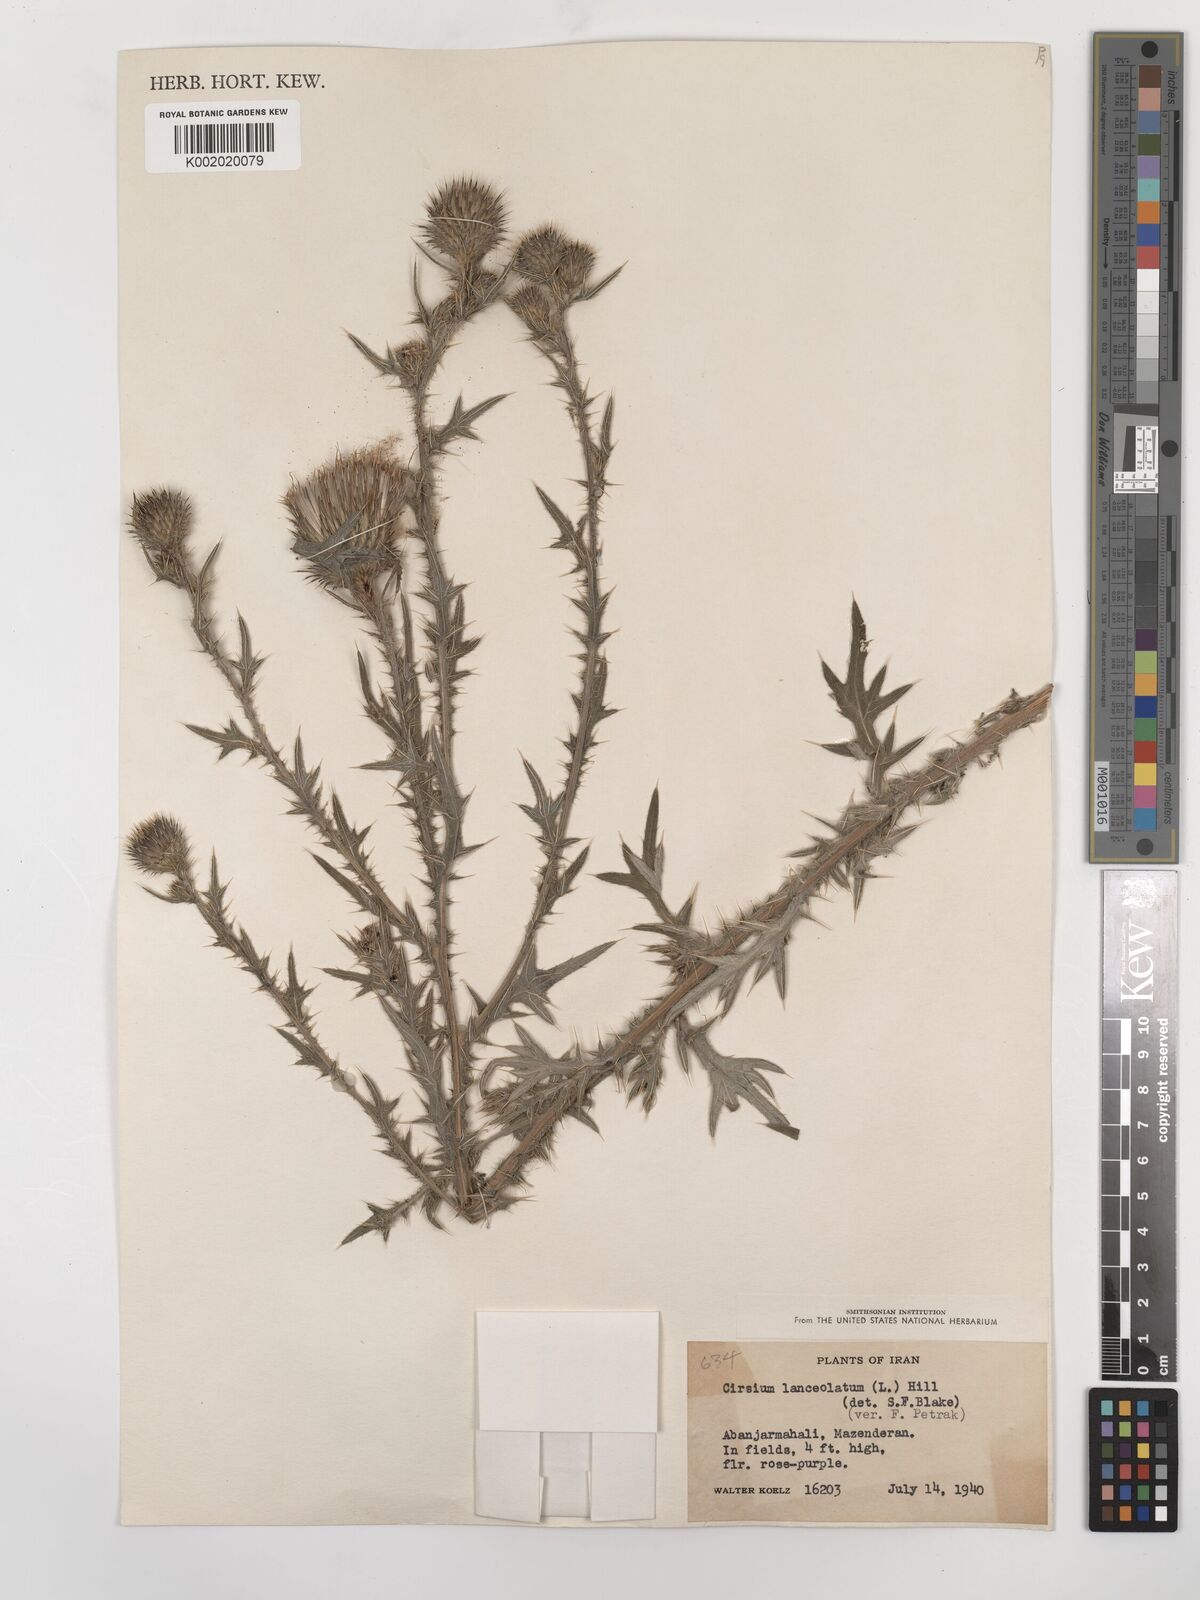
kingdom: Plantae
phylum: Tracheophyta
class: Magnoliopsida
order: Asterales
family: Asteraceae
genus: Cirsium
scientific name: Cirsium vulgare
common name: Bull thistle
